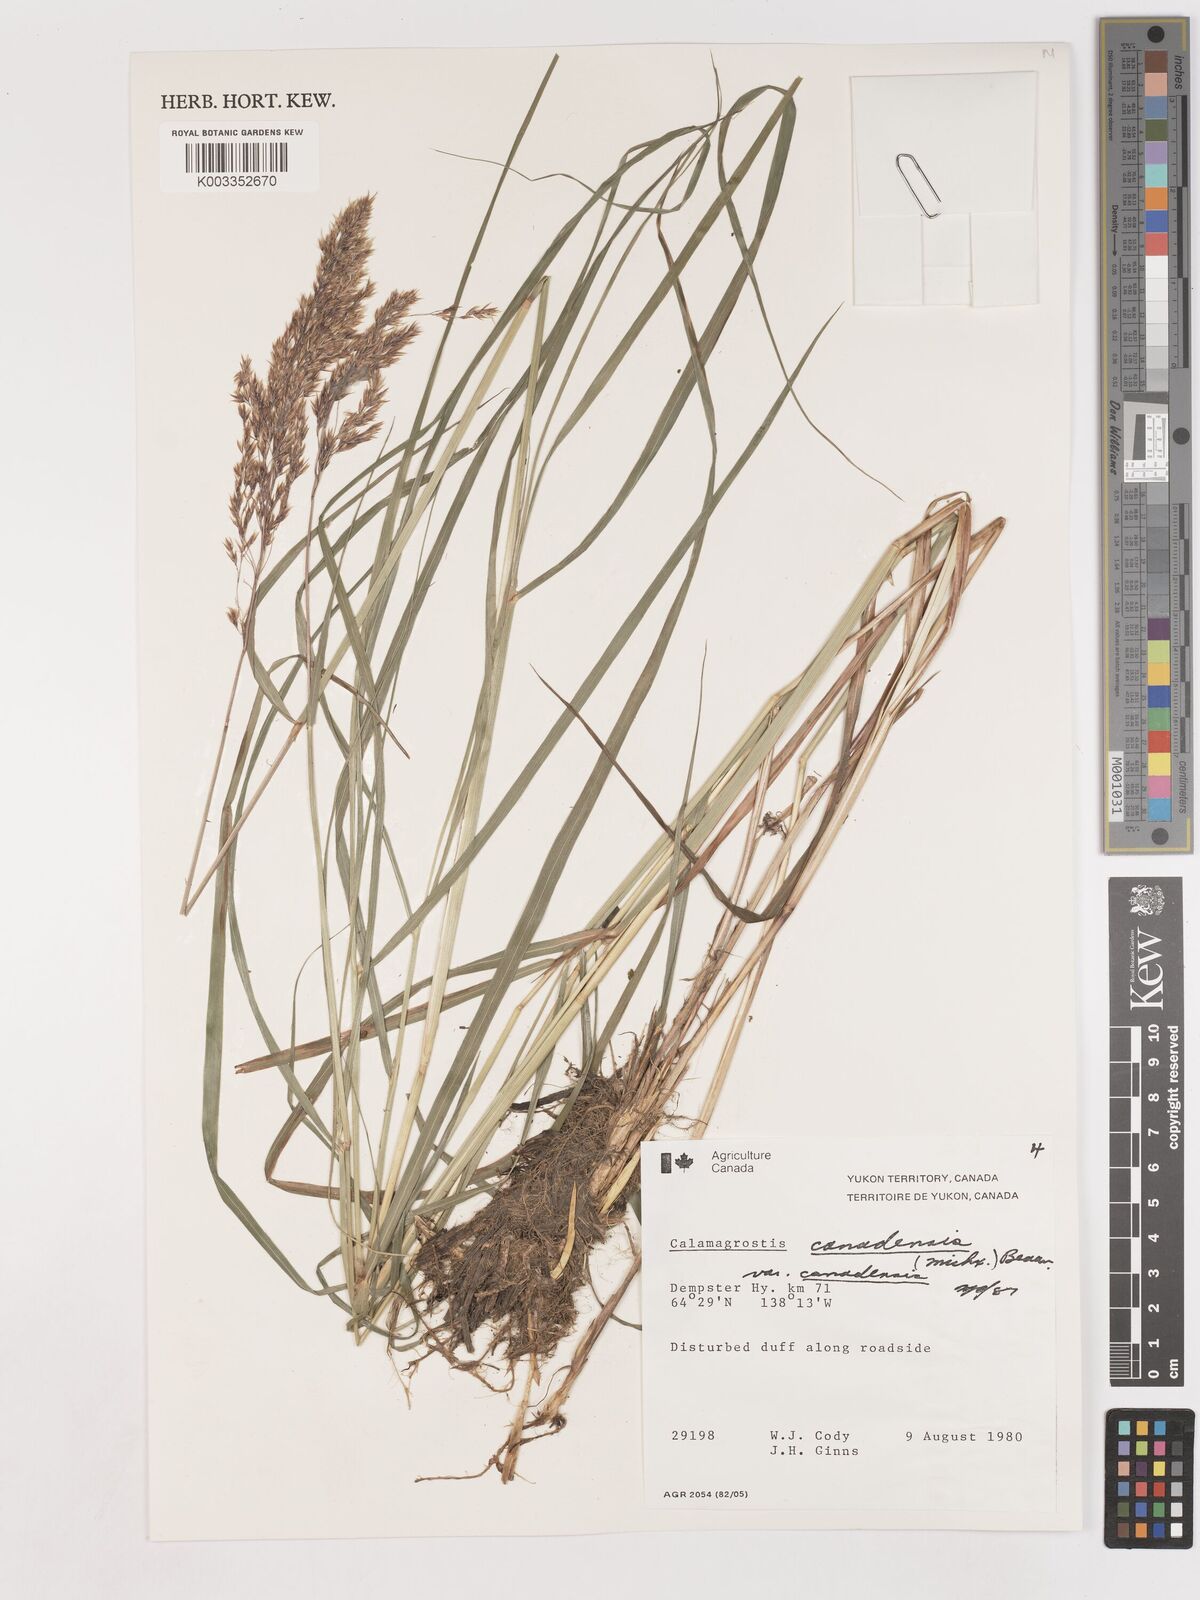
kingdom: Plantae
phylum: Tracheophyta
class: Liliopsida
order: Poales
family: Poaceae
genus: Calamagrostis
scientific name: Calamagrostis canadensis
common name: Canada bluejoint
